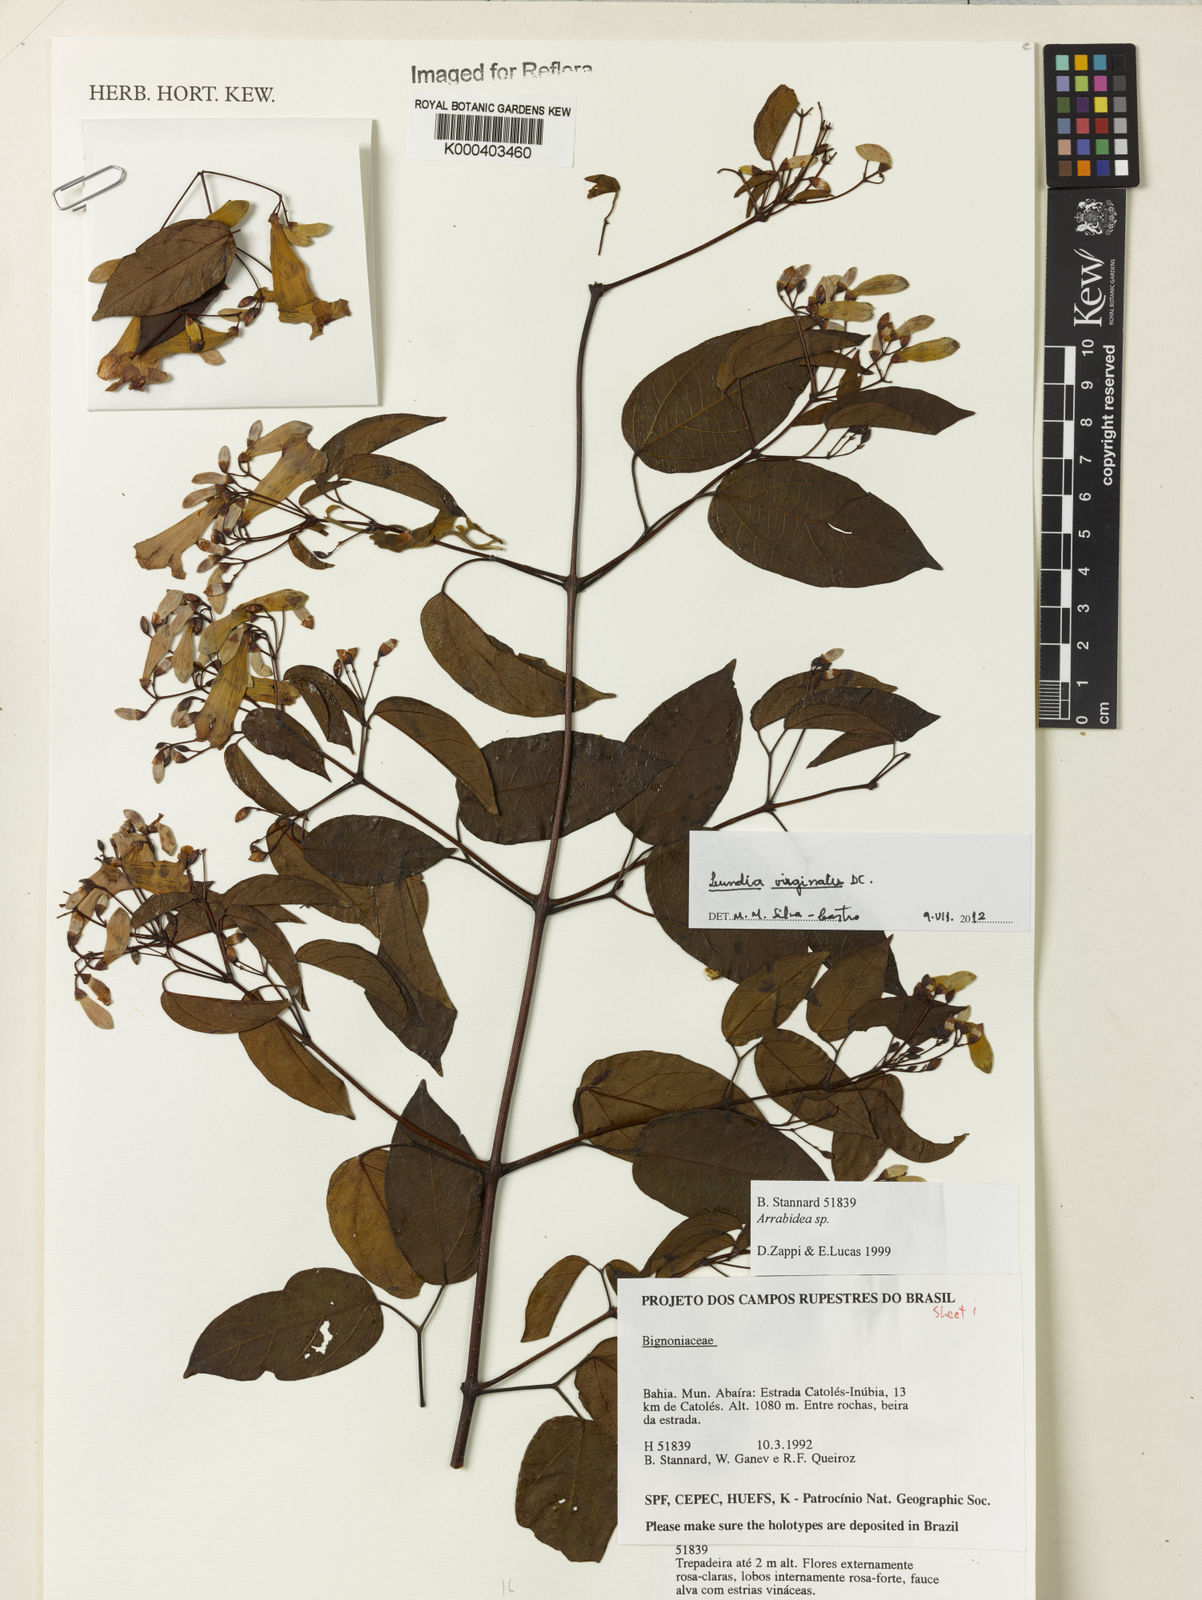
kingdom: Plantae
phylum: Tracheophyta
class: Magnoliopsida
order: Lamiales
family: Bignoniaceae
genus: Lundia
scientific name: Lundia virginalis
